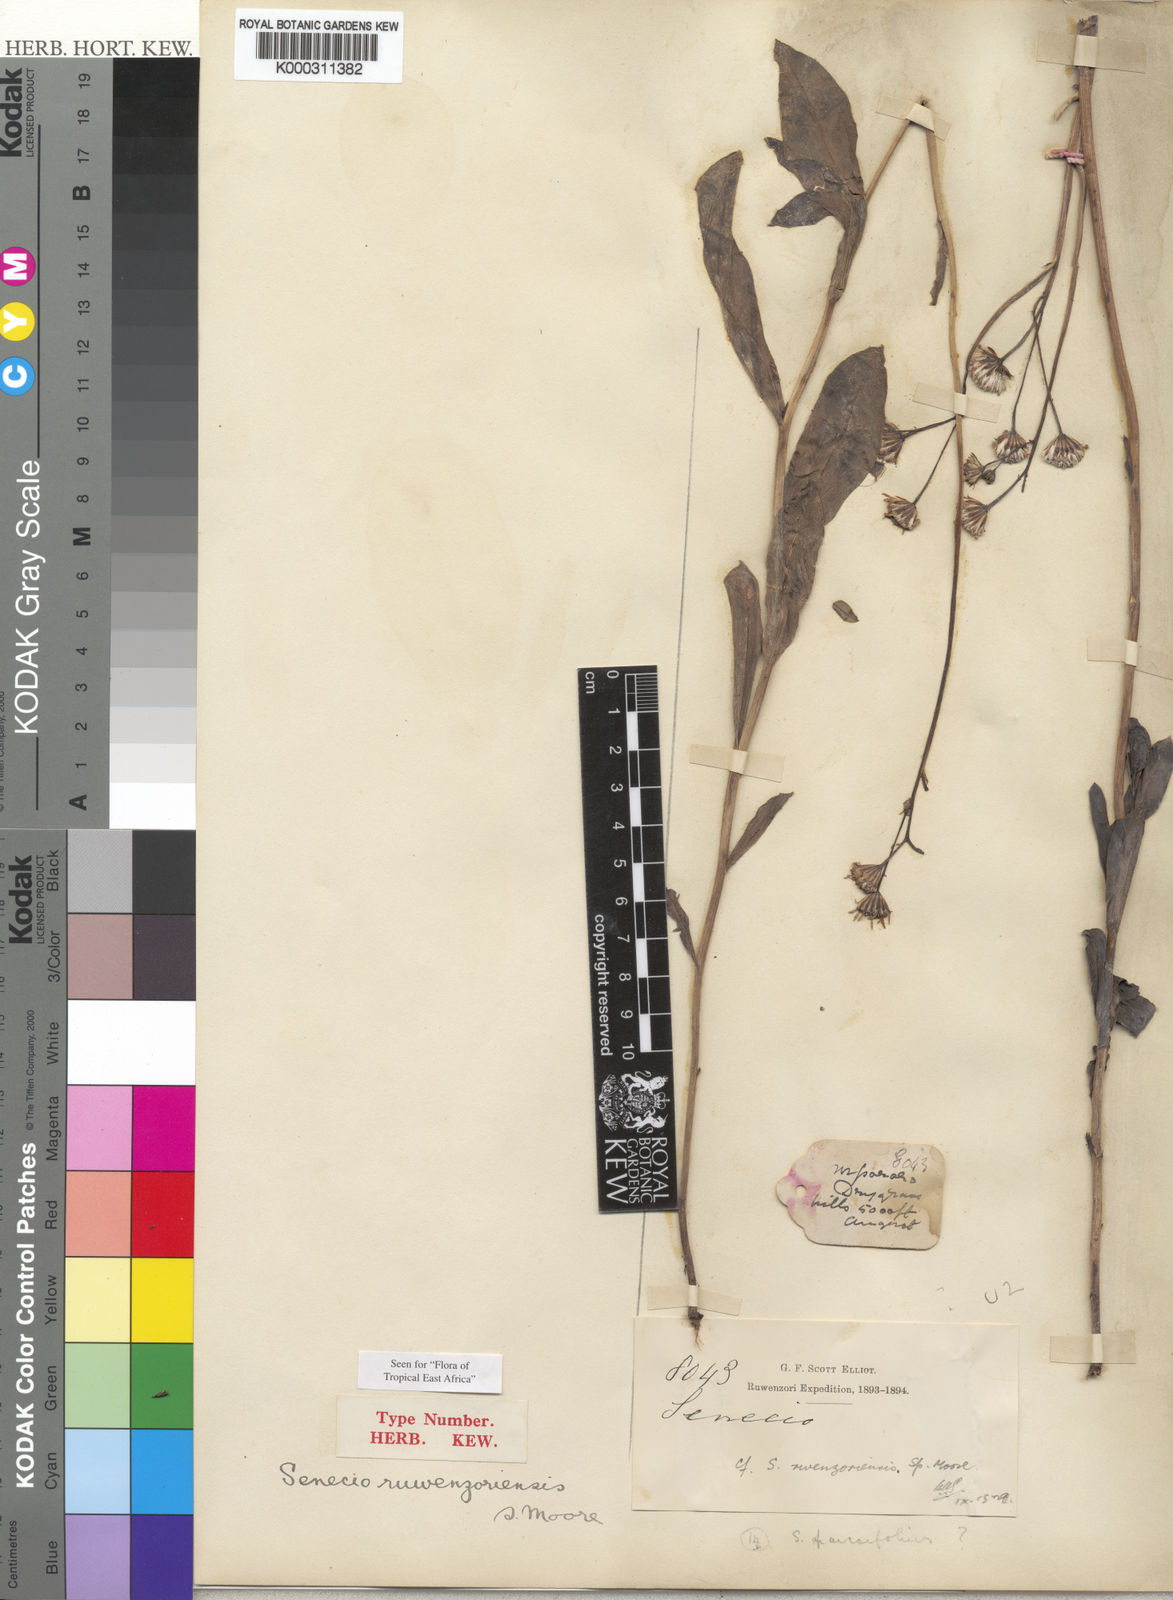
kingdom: Plantae
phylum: Tracheophyta
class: Magnoliopsida
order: Asterales
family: Asteraceae
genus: Senecio
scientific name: Senecio ruwenzoriensis
